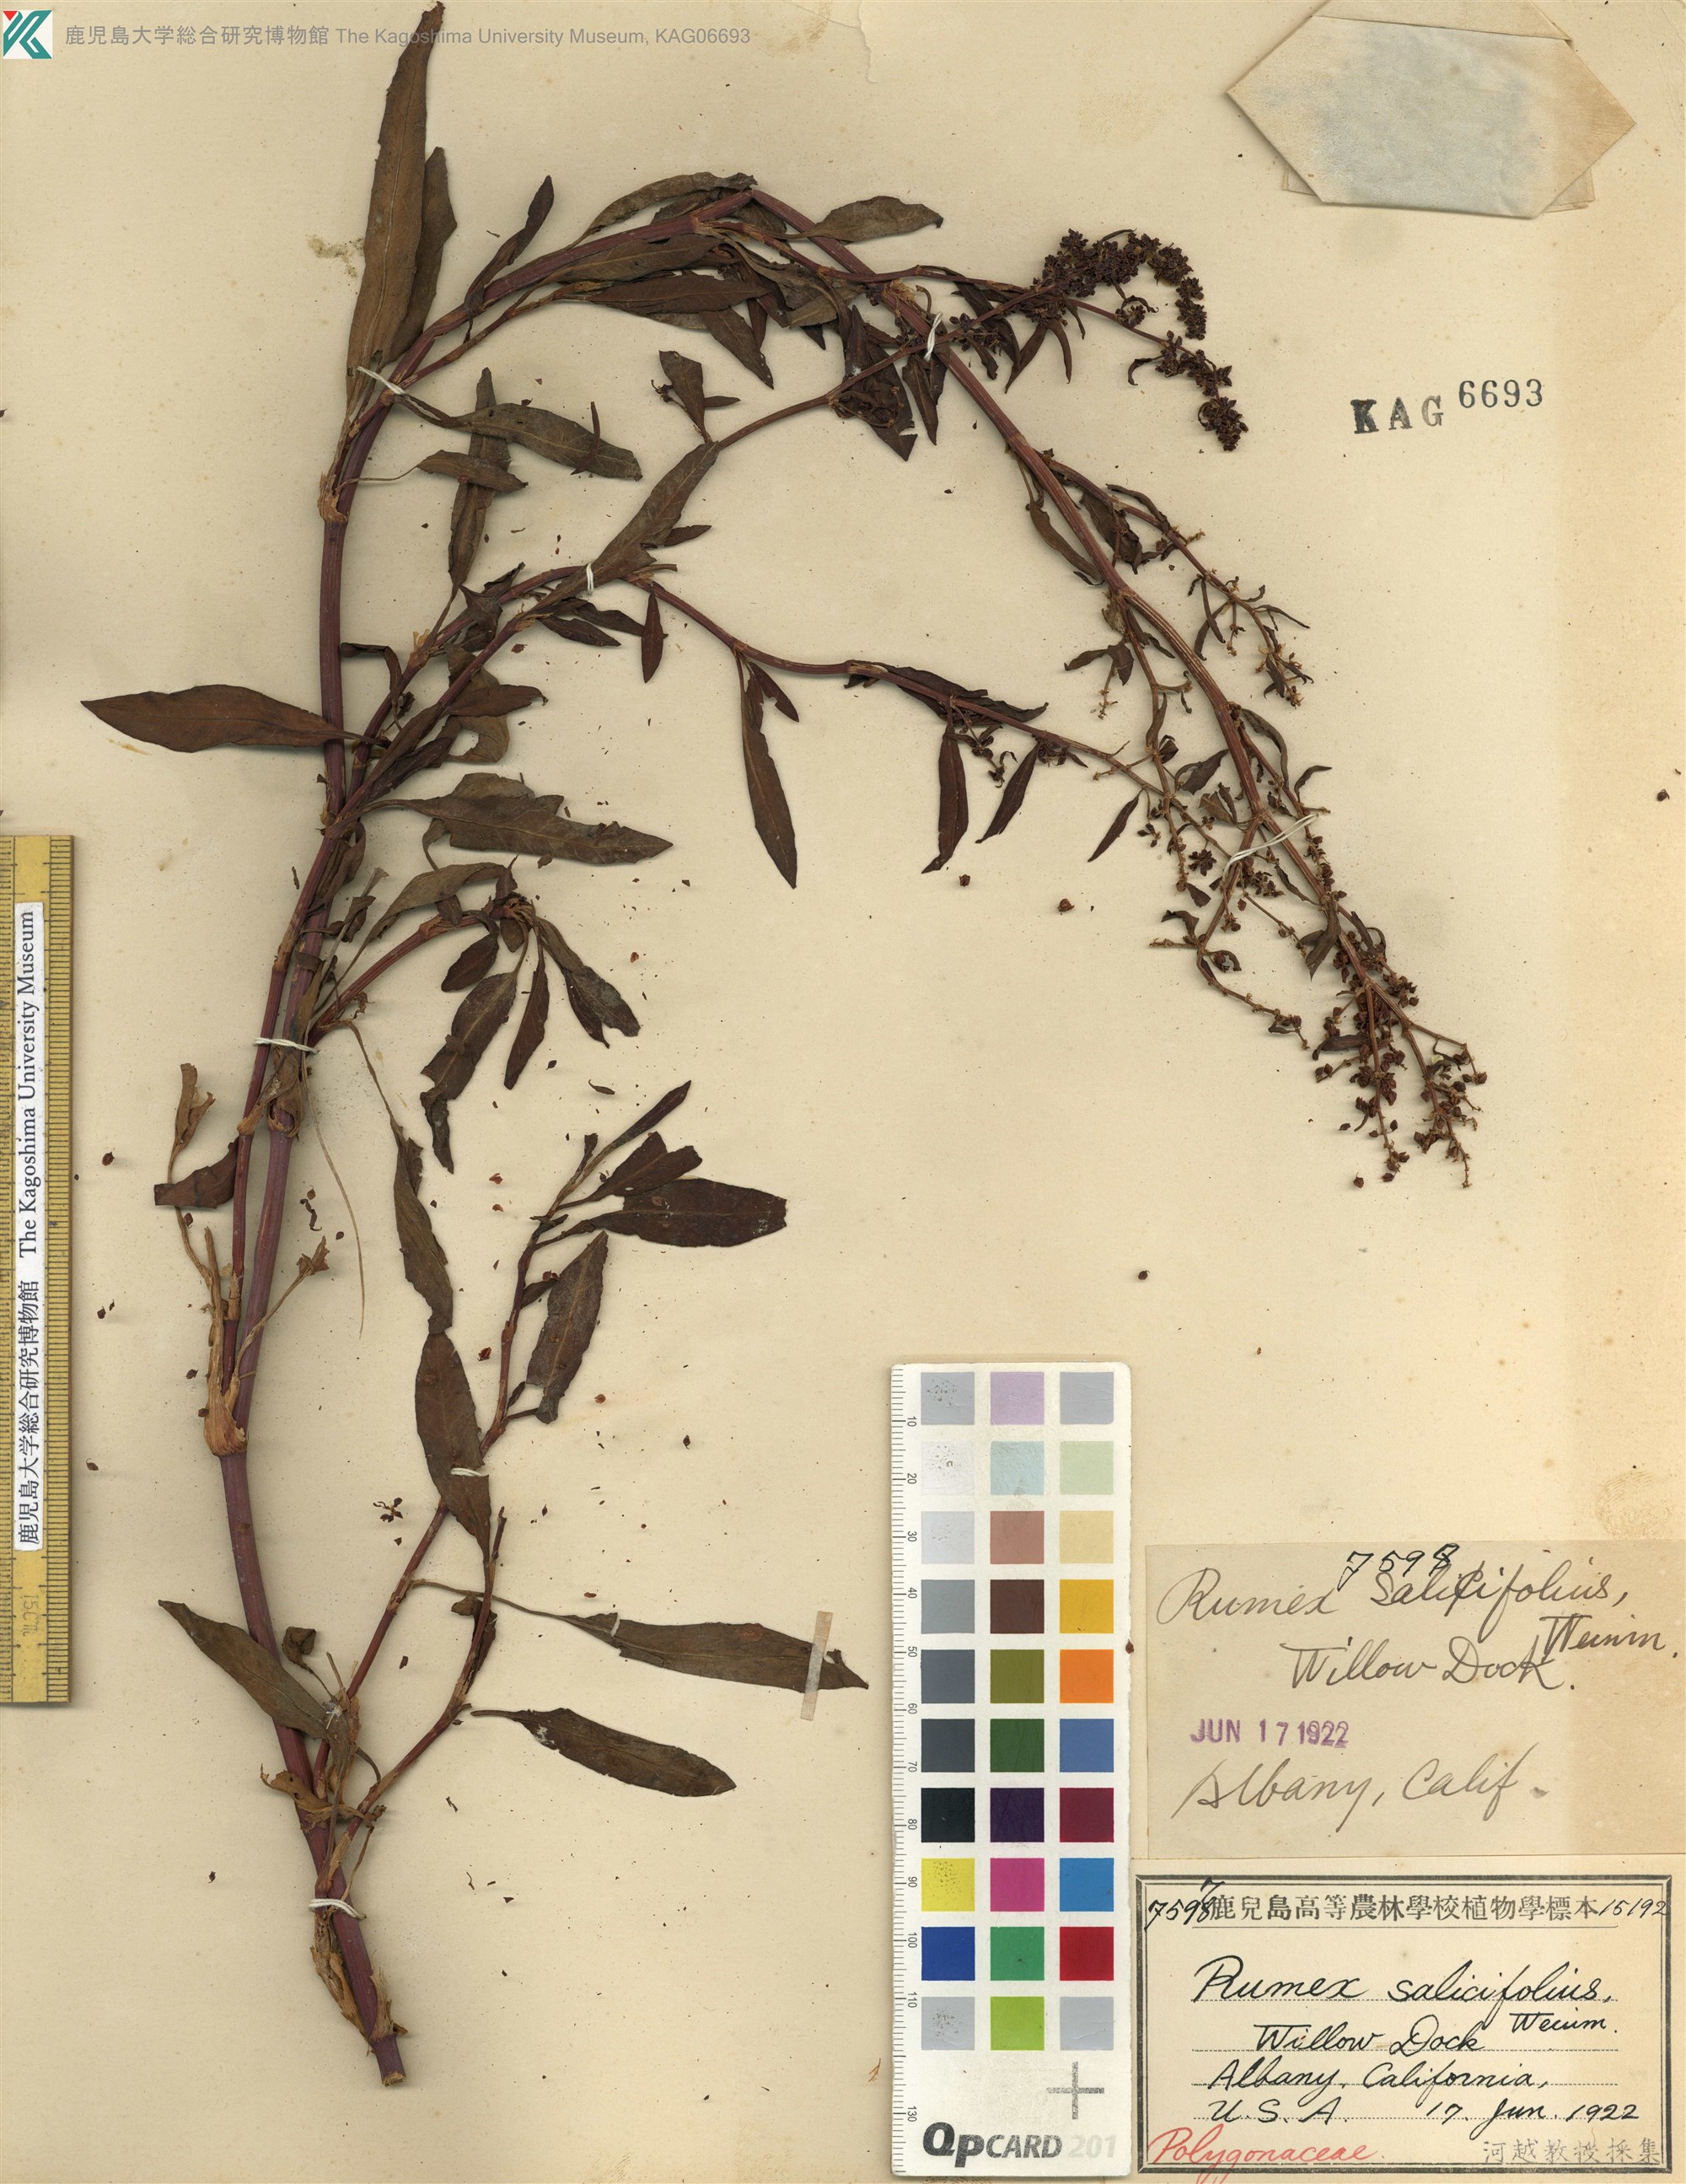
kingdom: Plantae
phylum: Tracheophyta
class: Magnoliopsida
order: Caryophyllales
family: Polygonaceae
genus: Rumex
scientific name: Rumex salicifolius
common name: Willow-leaved dock
